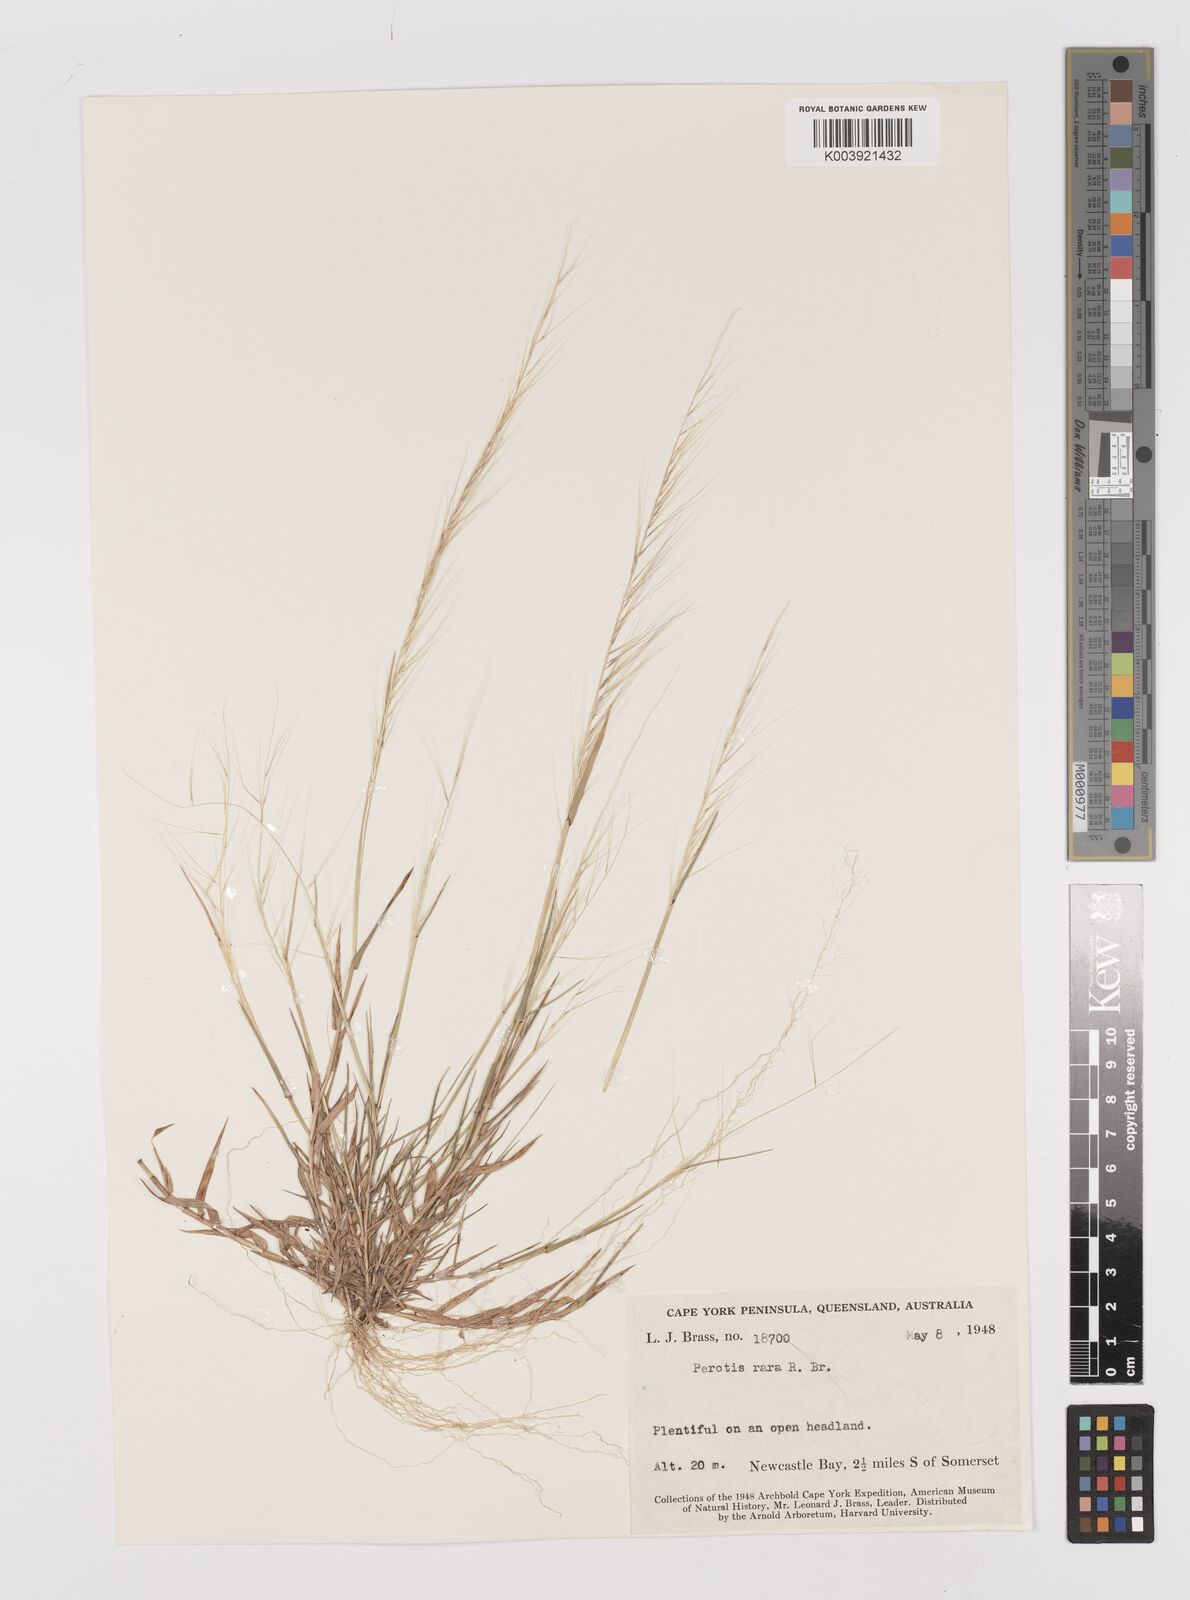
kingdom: Plantae
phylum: Tracheophyta
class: Liliopsida
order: Poales
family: Poaceae
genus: Perotis
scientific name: Perotis rara
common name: Comet grass
